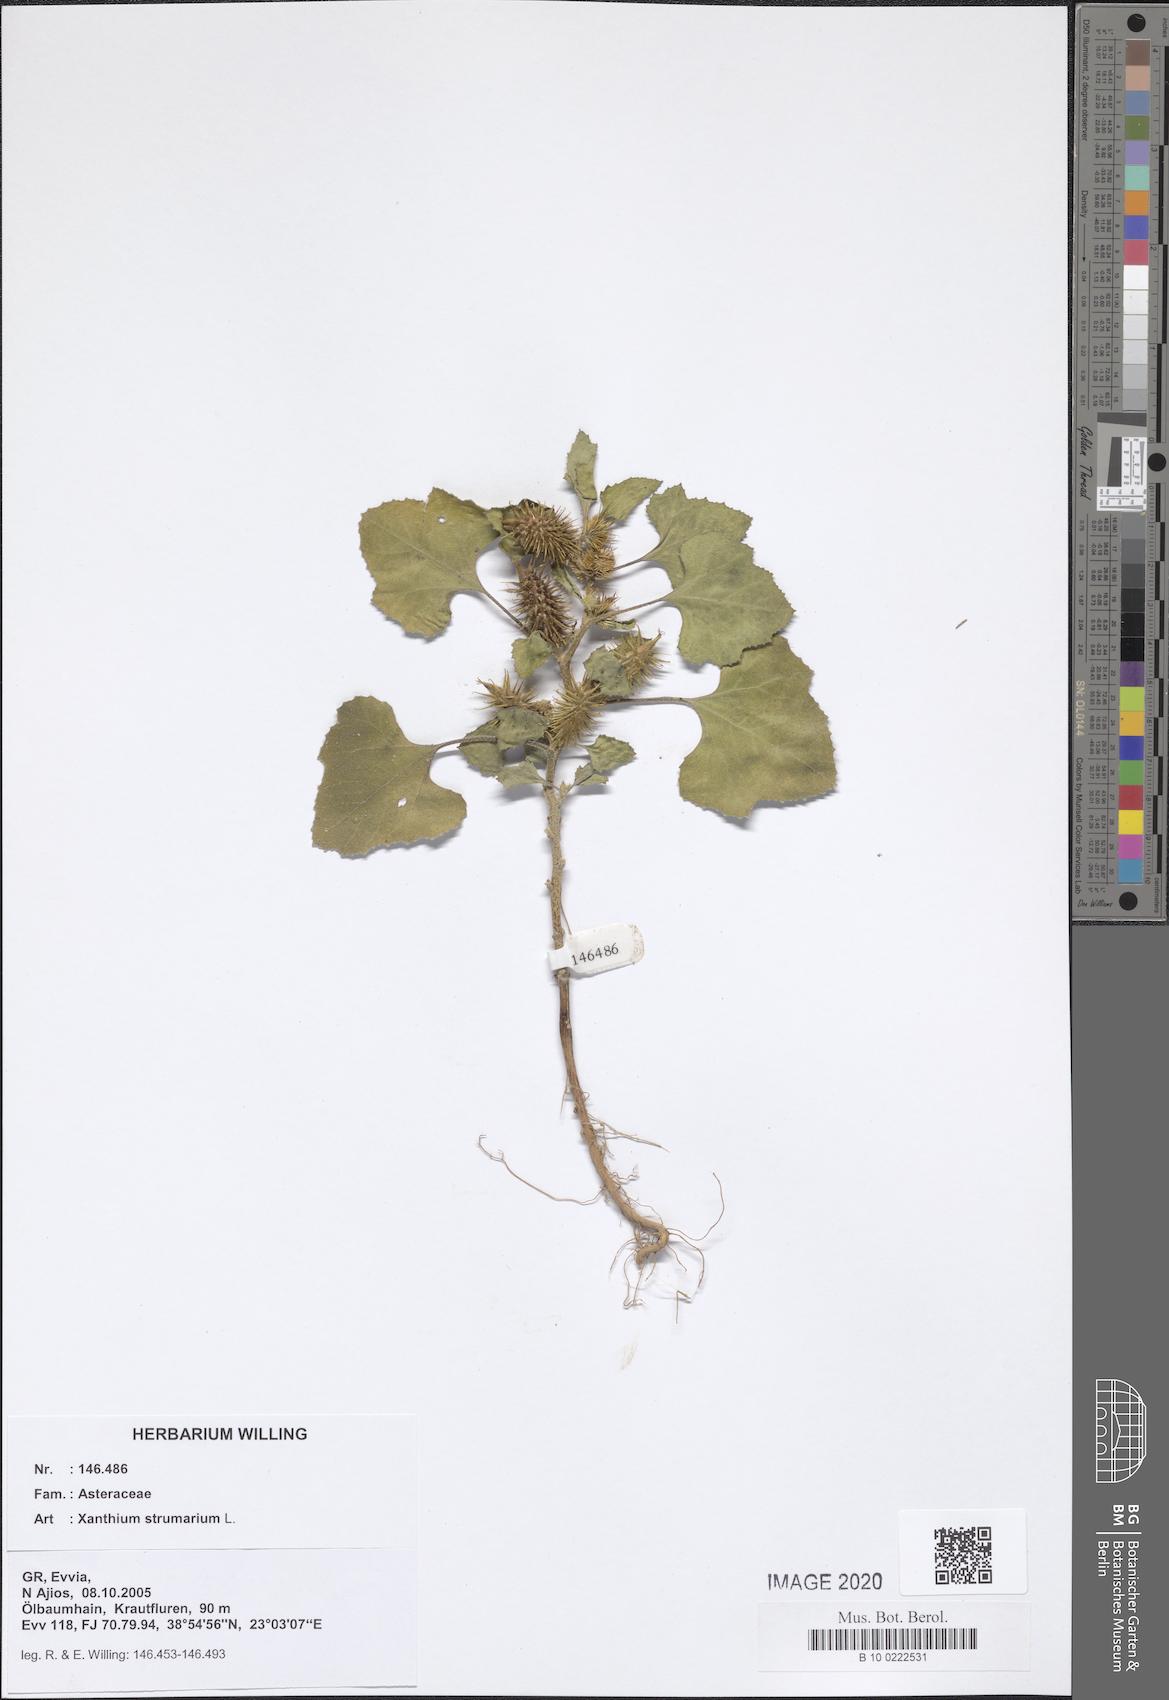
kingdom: Plantae
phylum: Tracheophyta
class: Magnoliopsida
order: Asterales
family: Asteraceae
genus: Xanthium
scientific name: Xanthium strumarium
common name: Rough cocklebur
